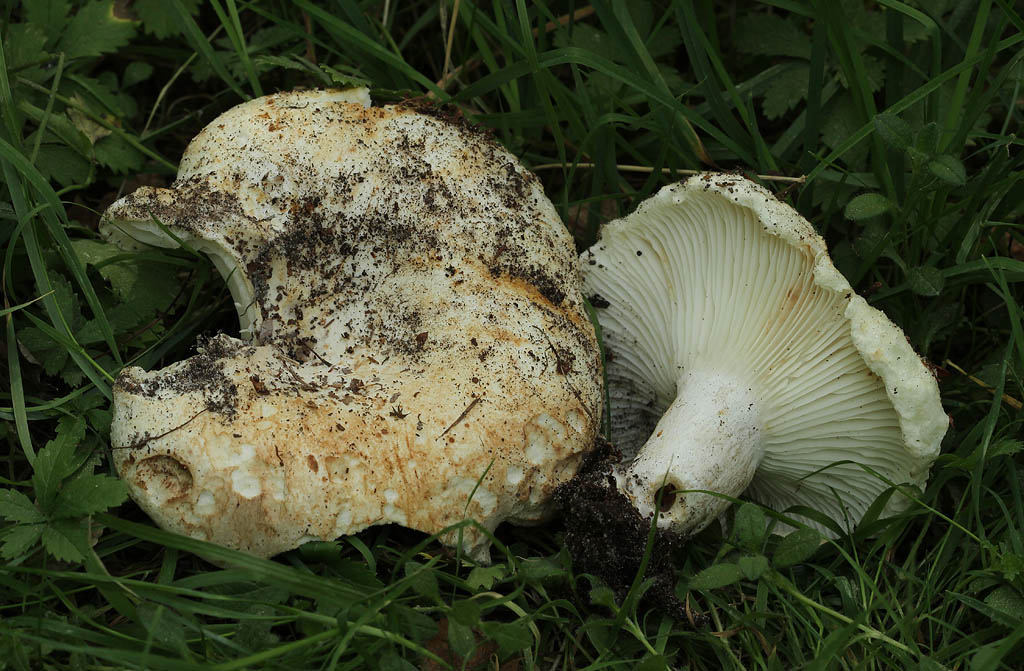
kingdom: Fungi
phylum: Basidiomycota
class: Agaricomycetes
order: Russulales
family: Russulaceae
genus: Russula
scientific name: Russula delica
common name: almindelig tragt-skørhat
